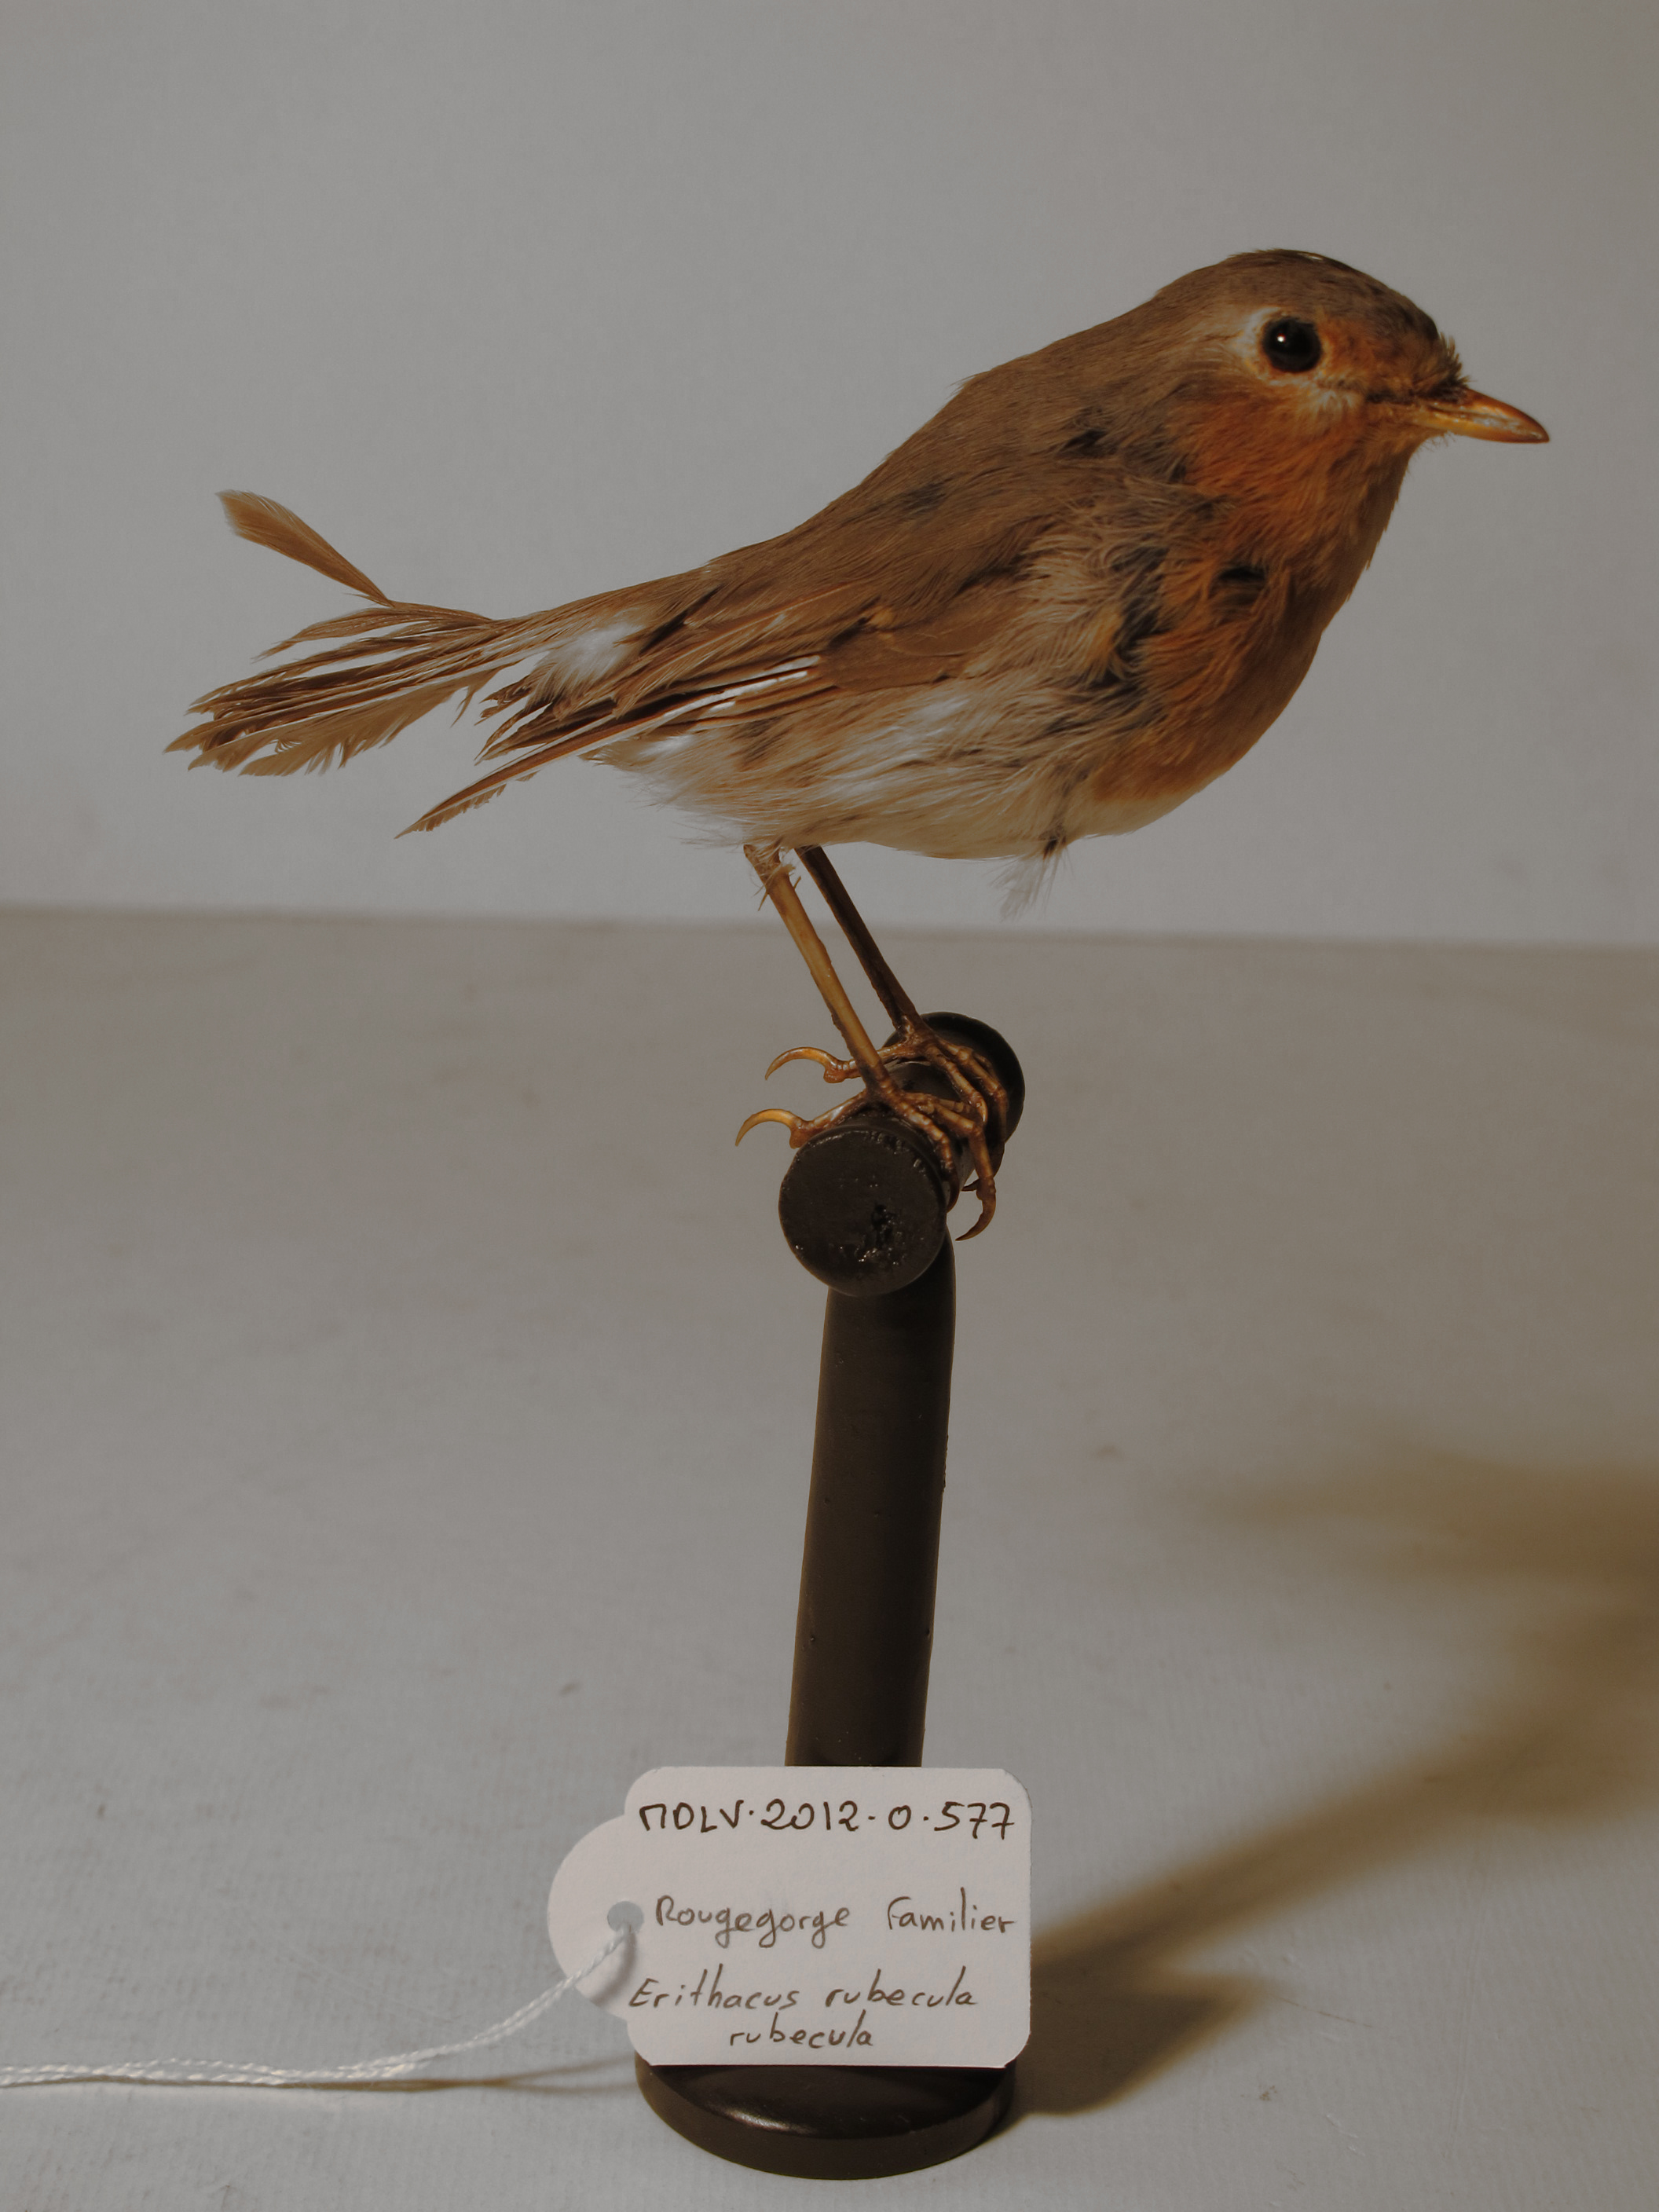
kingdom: Animalia
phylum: Chordata
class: Aves
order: Passeriformes
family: Muscicapidae
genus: Erithacus
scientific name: Erithacus rubecula
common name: European Robin
